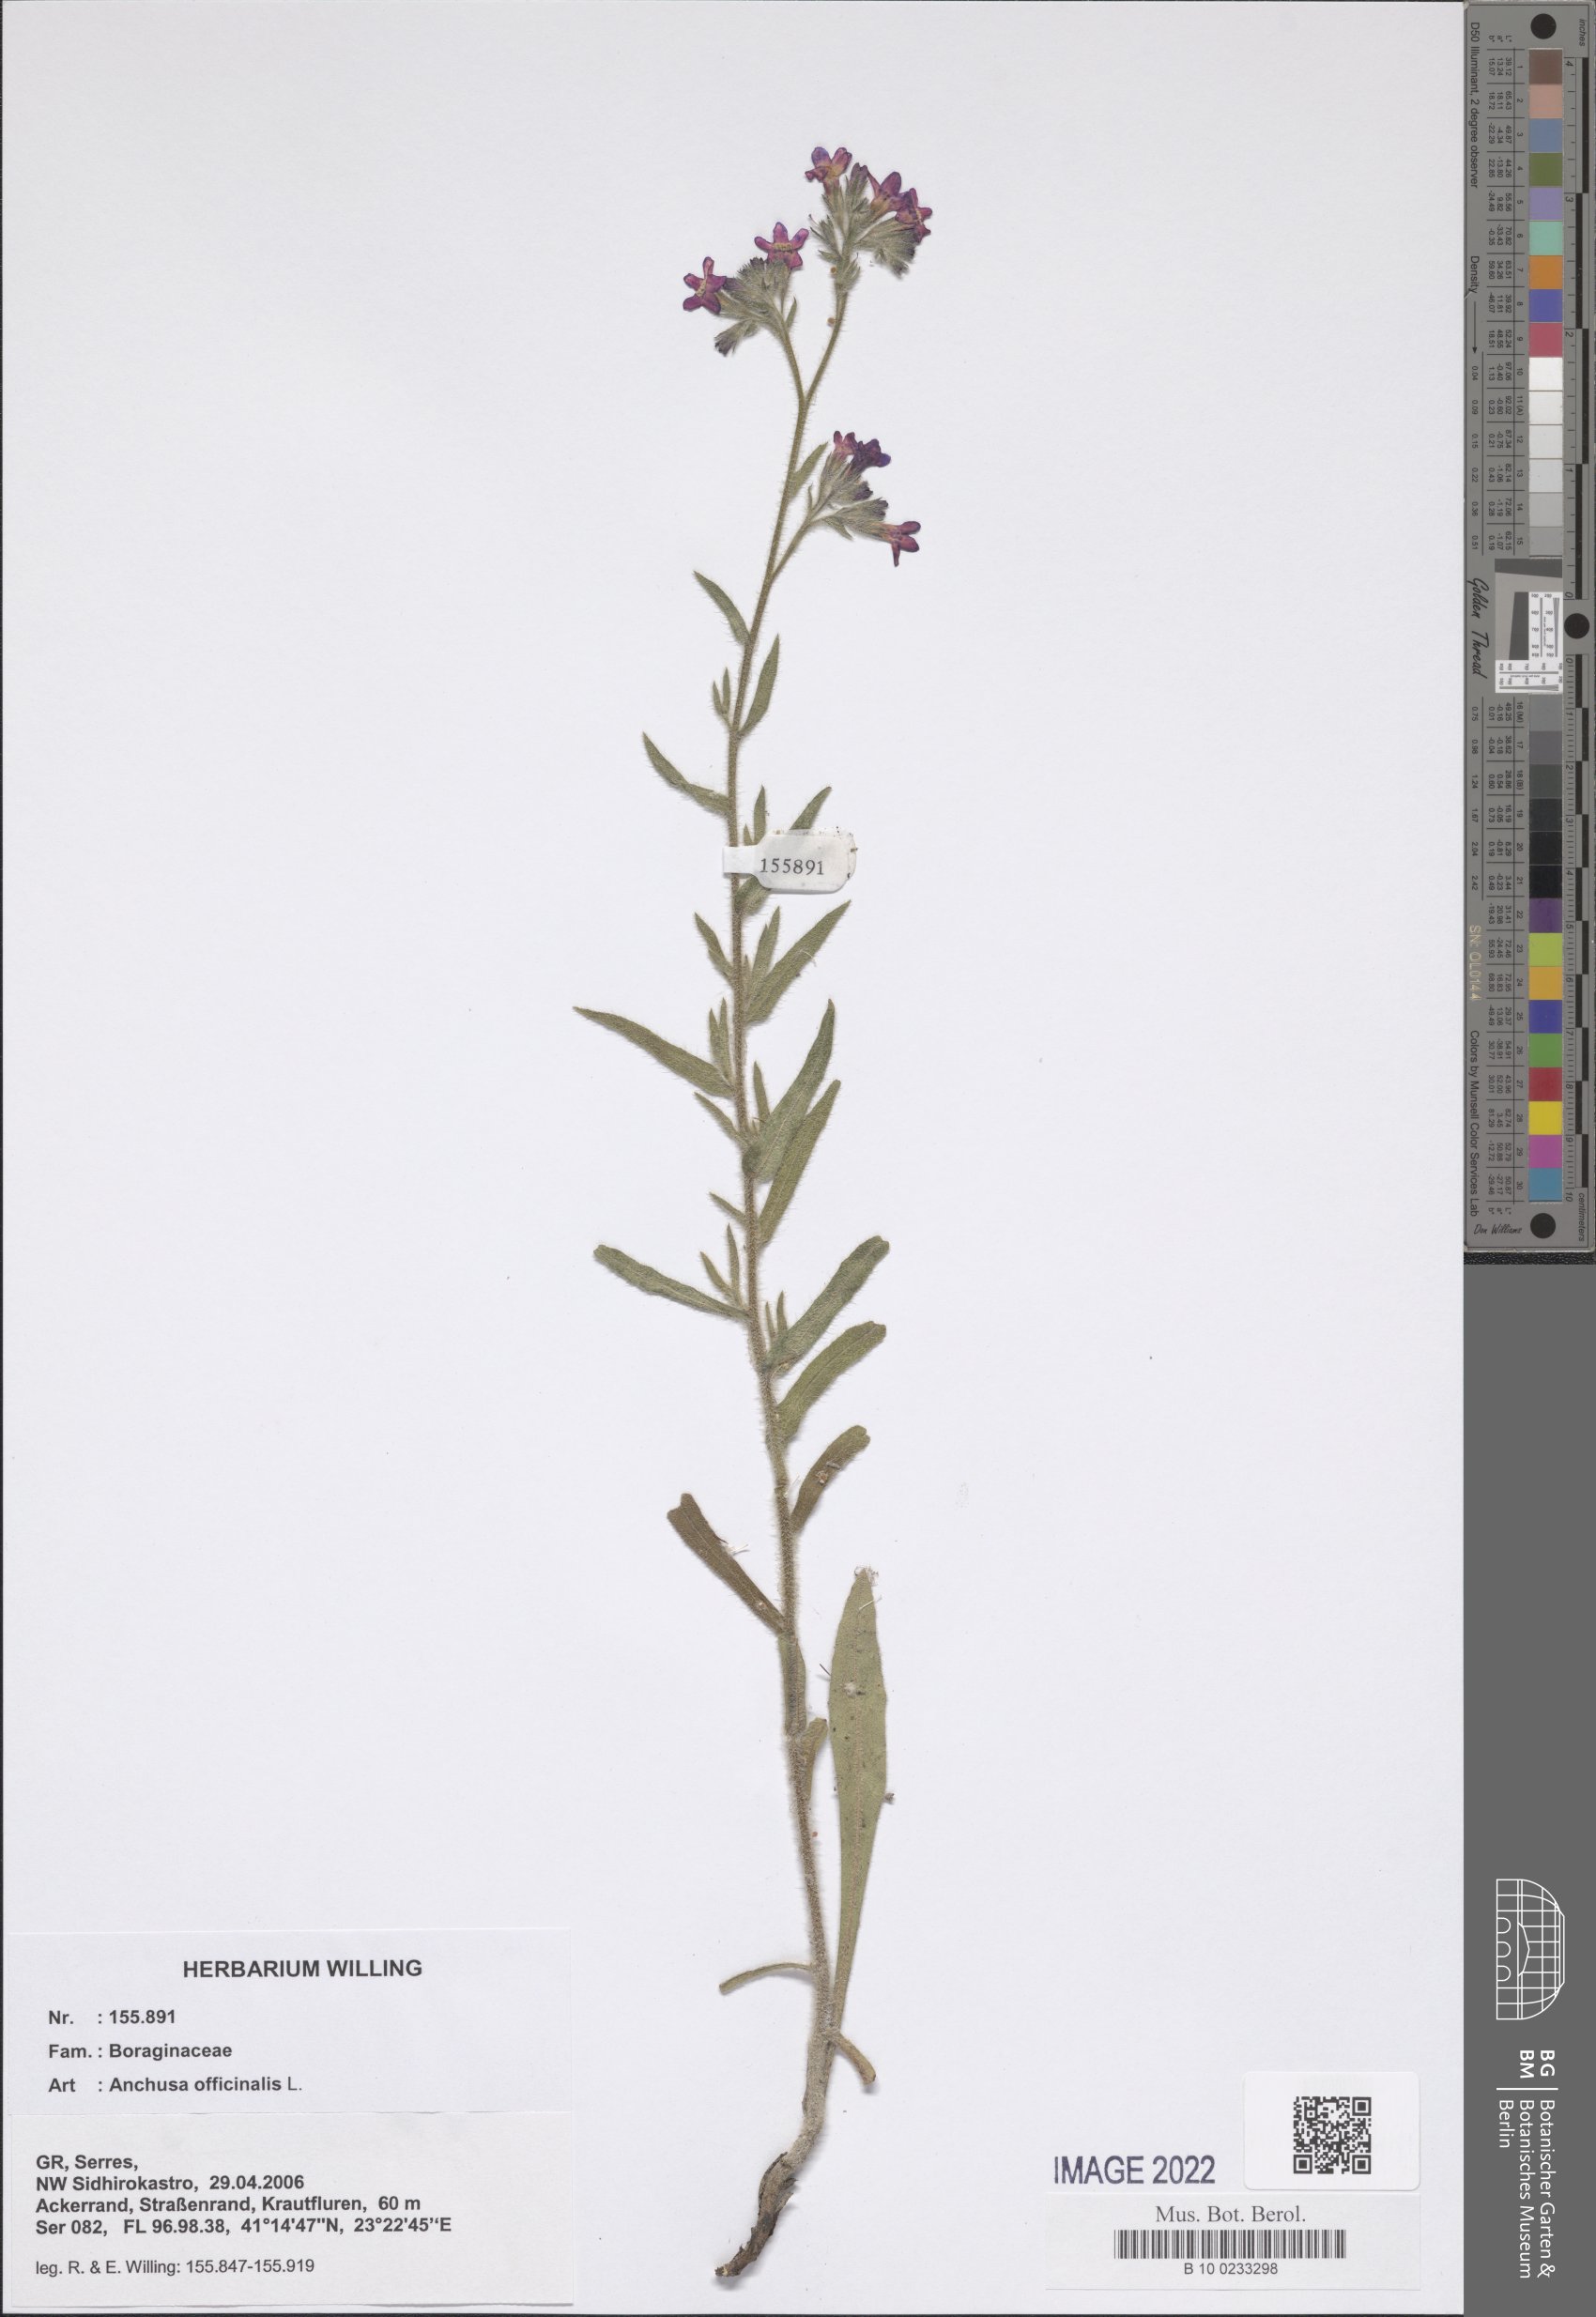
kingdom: Plantae
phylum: Tracheophyta
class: Magnoliopsida
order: Boraginales
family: Boraginaceae
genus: Anchusa
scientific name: Anchusa officinalis
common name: Alkanet
